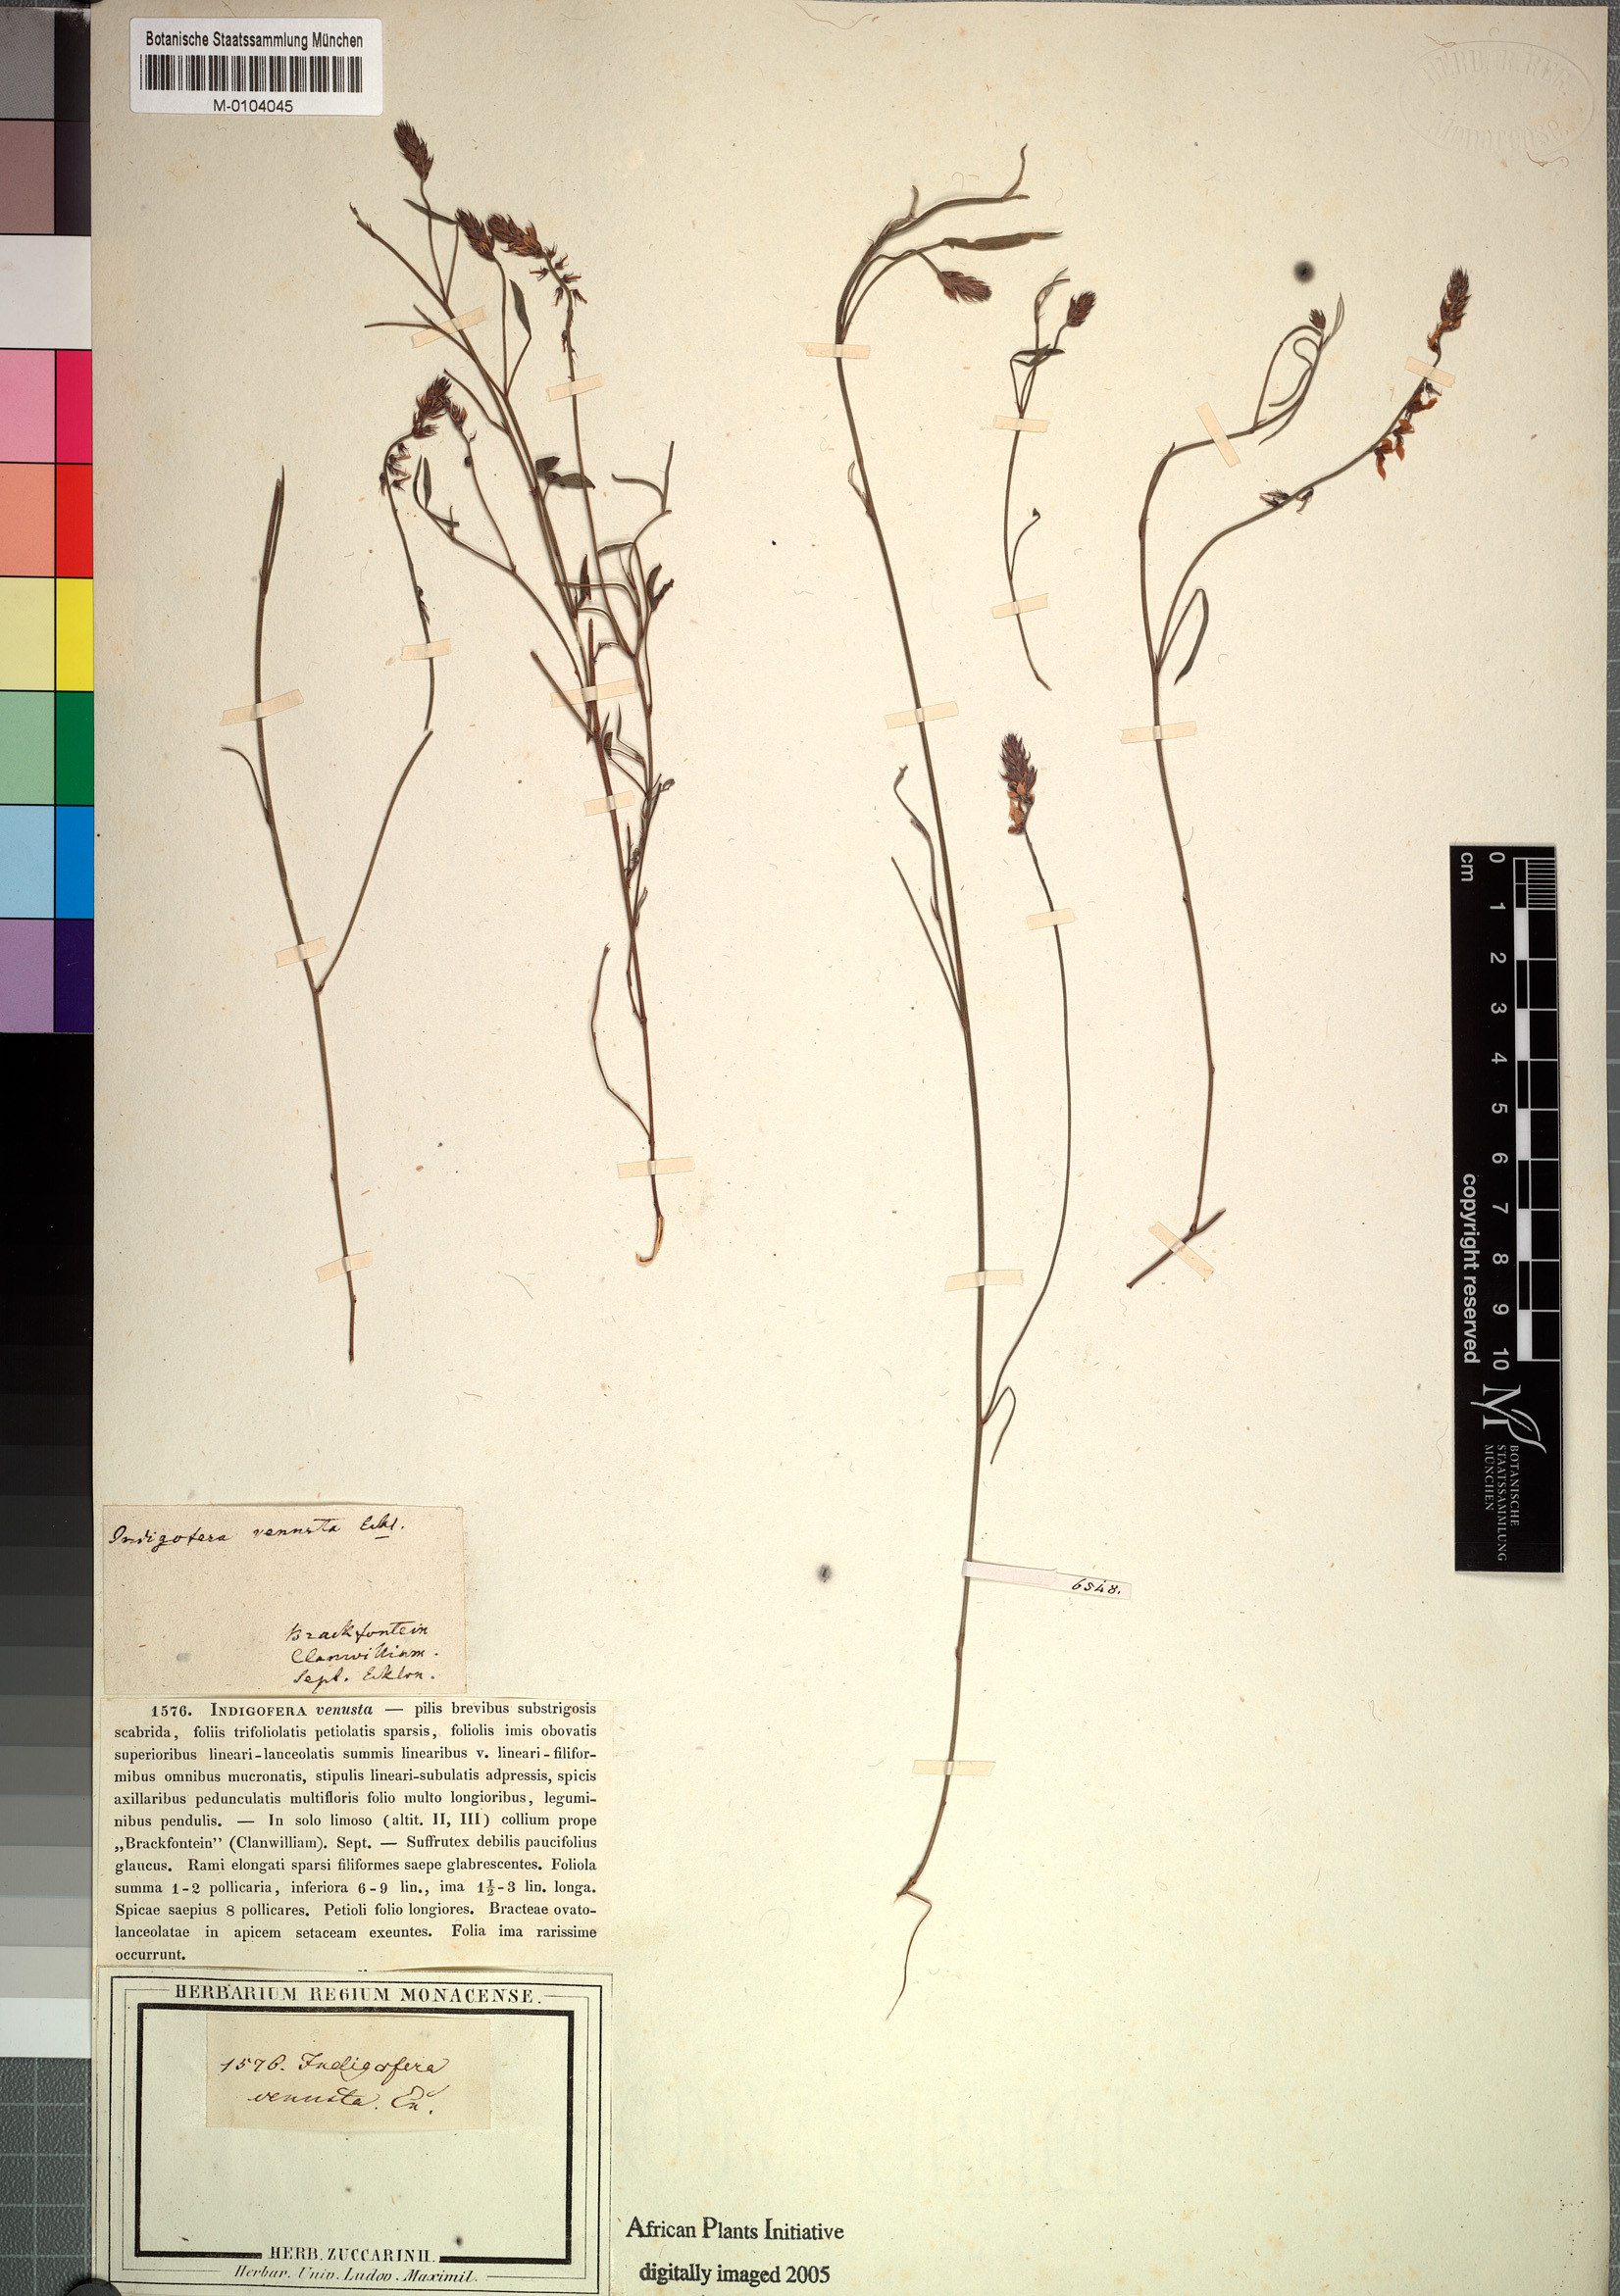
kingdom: Plantae
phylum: Tracheophyta
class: Magnoliopsida
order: Fabales
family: Fabaceae
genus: Indigofera
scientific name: Indigofera venusta
